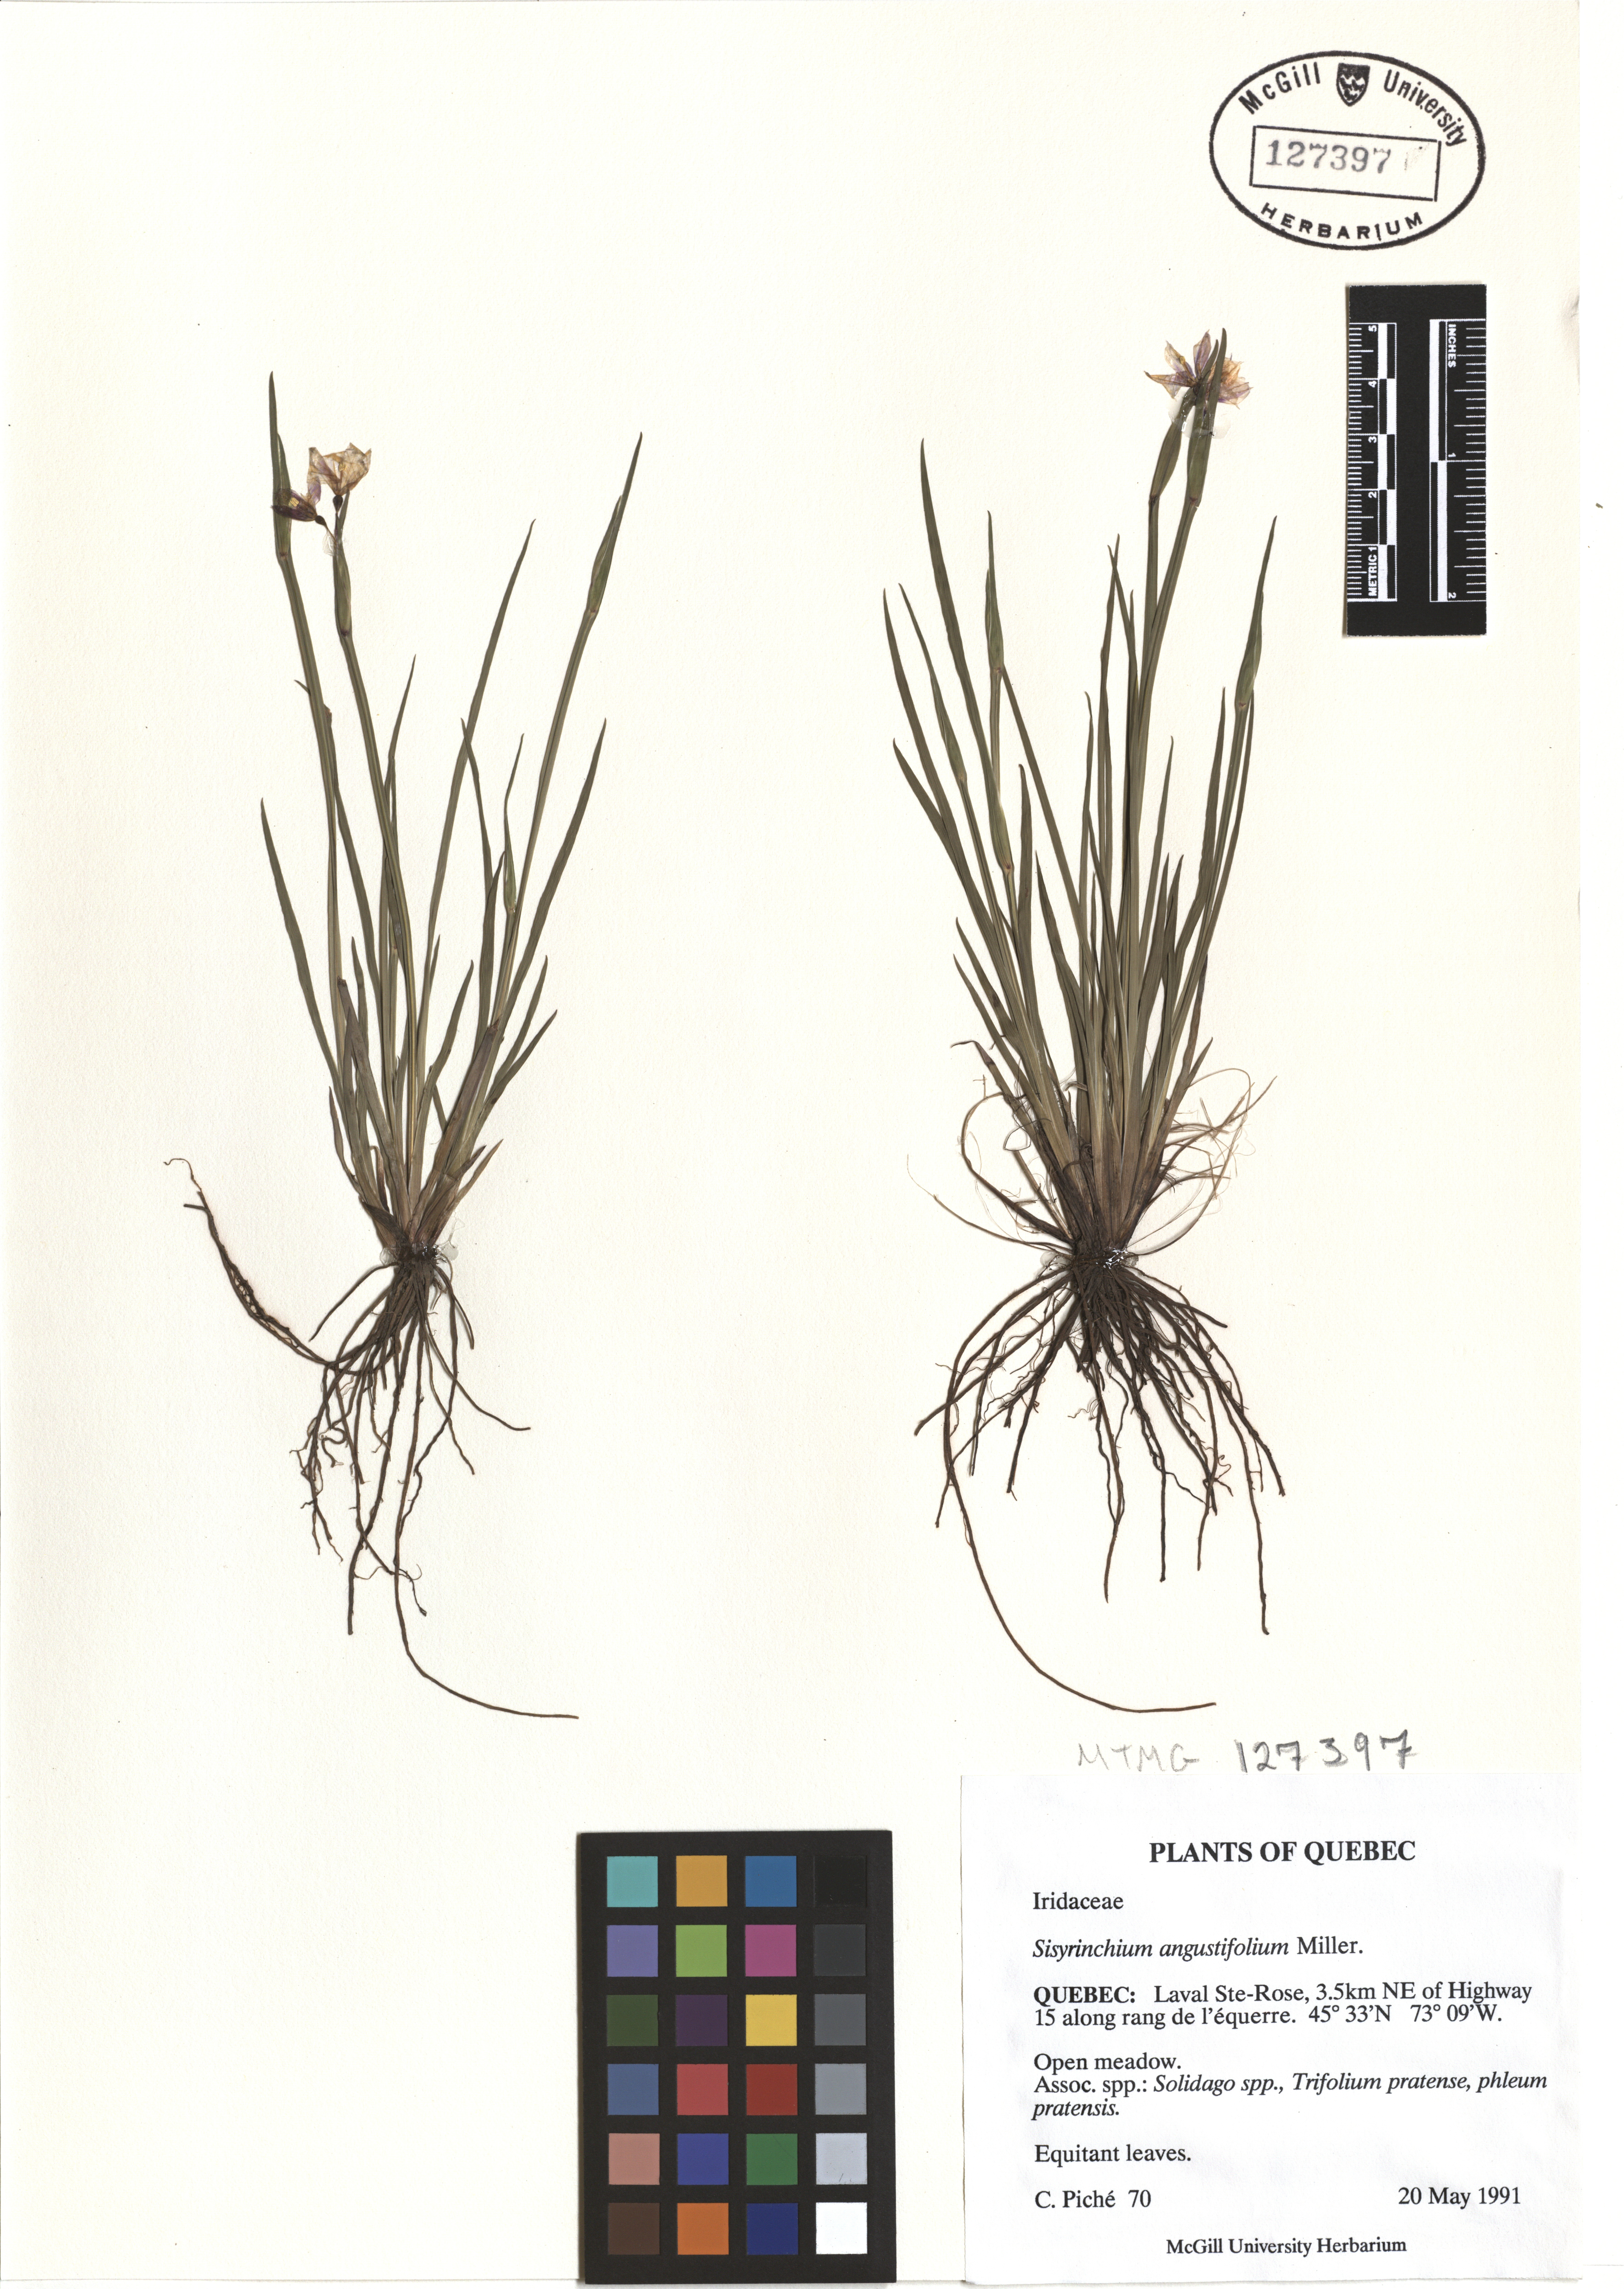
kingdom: Plantae
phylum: Tracheophyta
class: Liliopsida
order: Asparagales
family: Iridaceae
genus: Sisyrinchium
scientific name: Sisyrinchium angustifolium
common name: Narrow-leaf blue-eyed-grass
